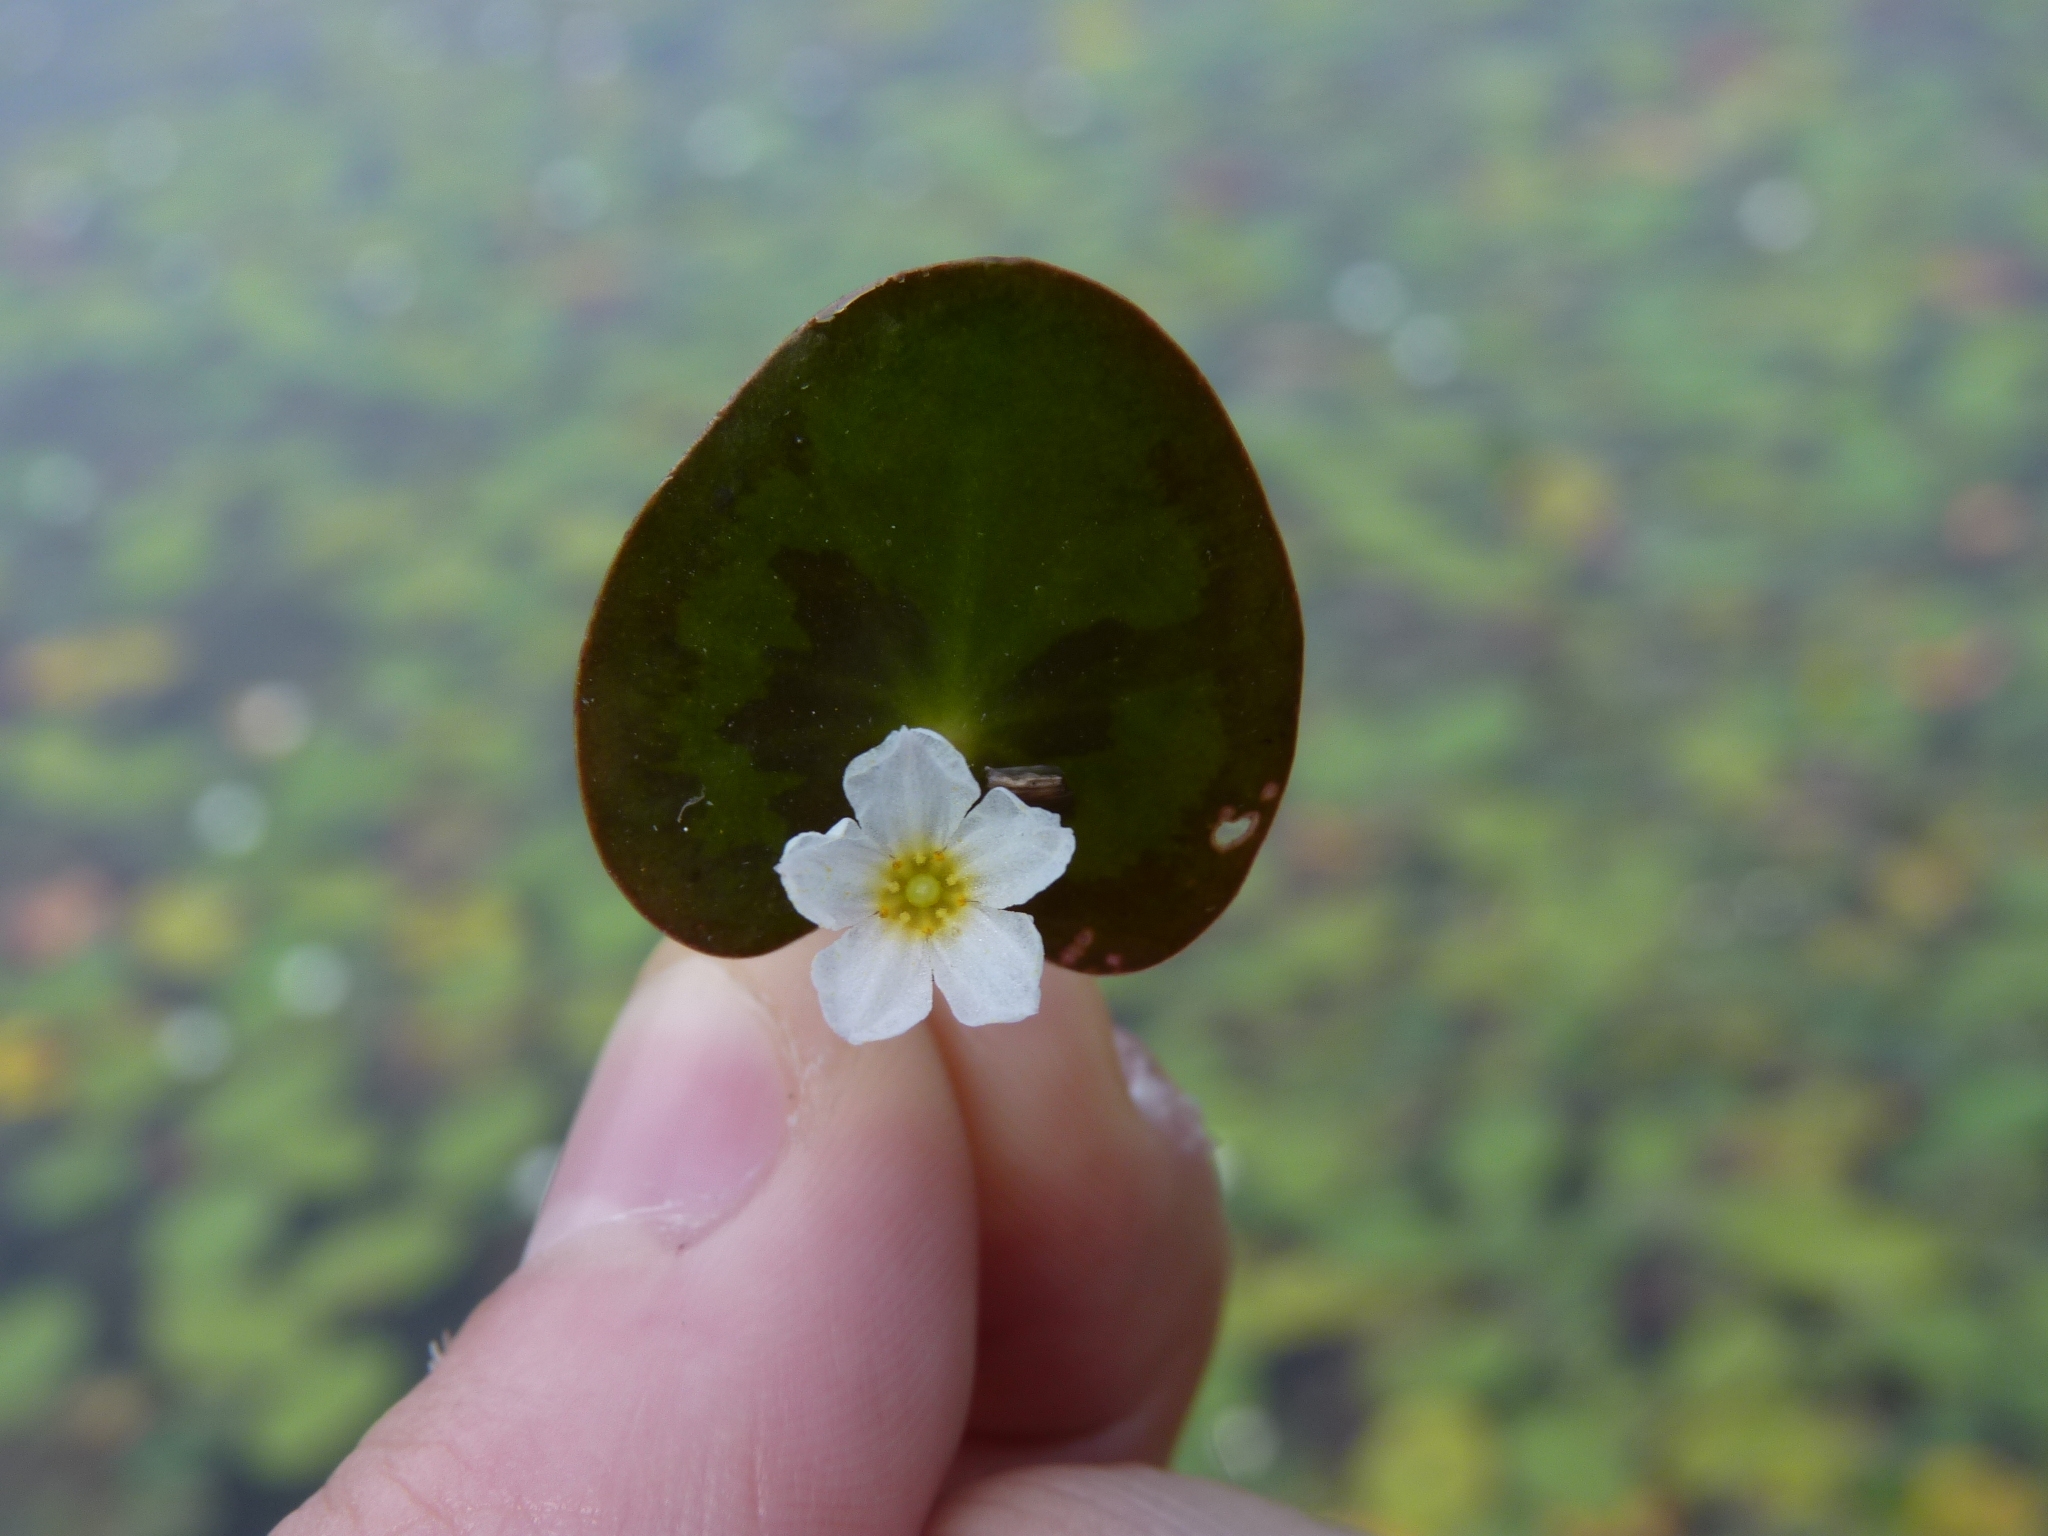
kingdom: Plantae
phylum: Tracheophyta
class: Magnoliopsida
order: Asterales
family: Menyanthaceae
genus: Nymphoides
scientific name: Nymphoides cordata
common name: floating heart
